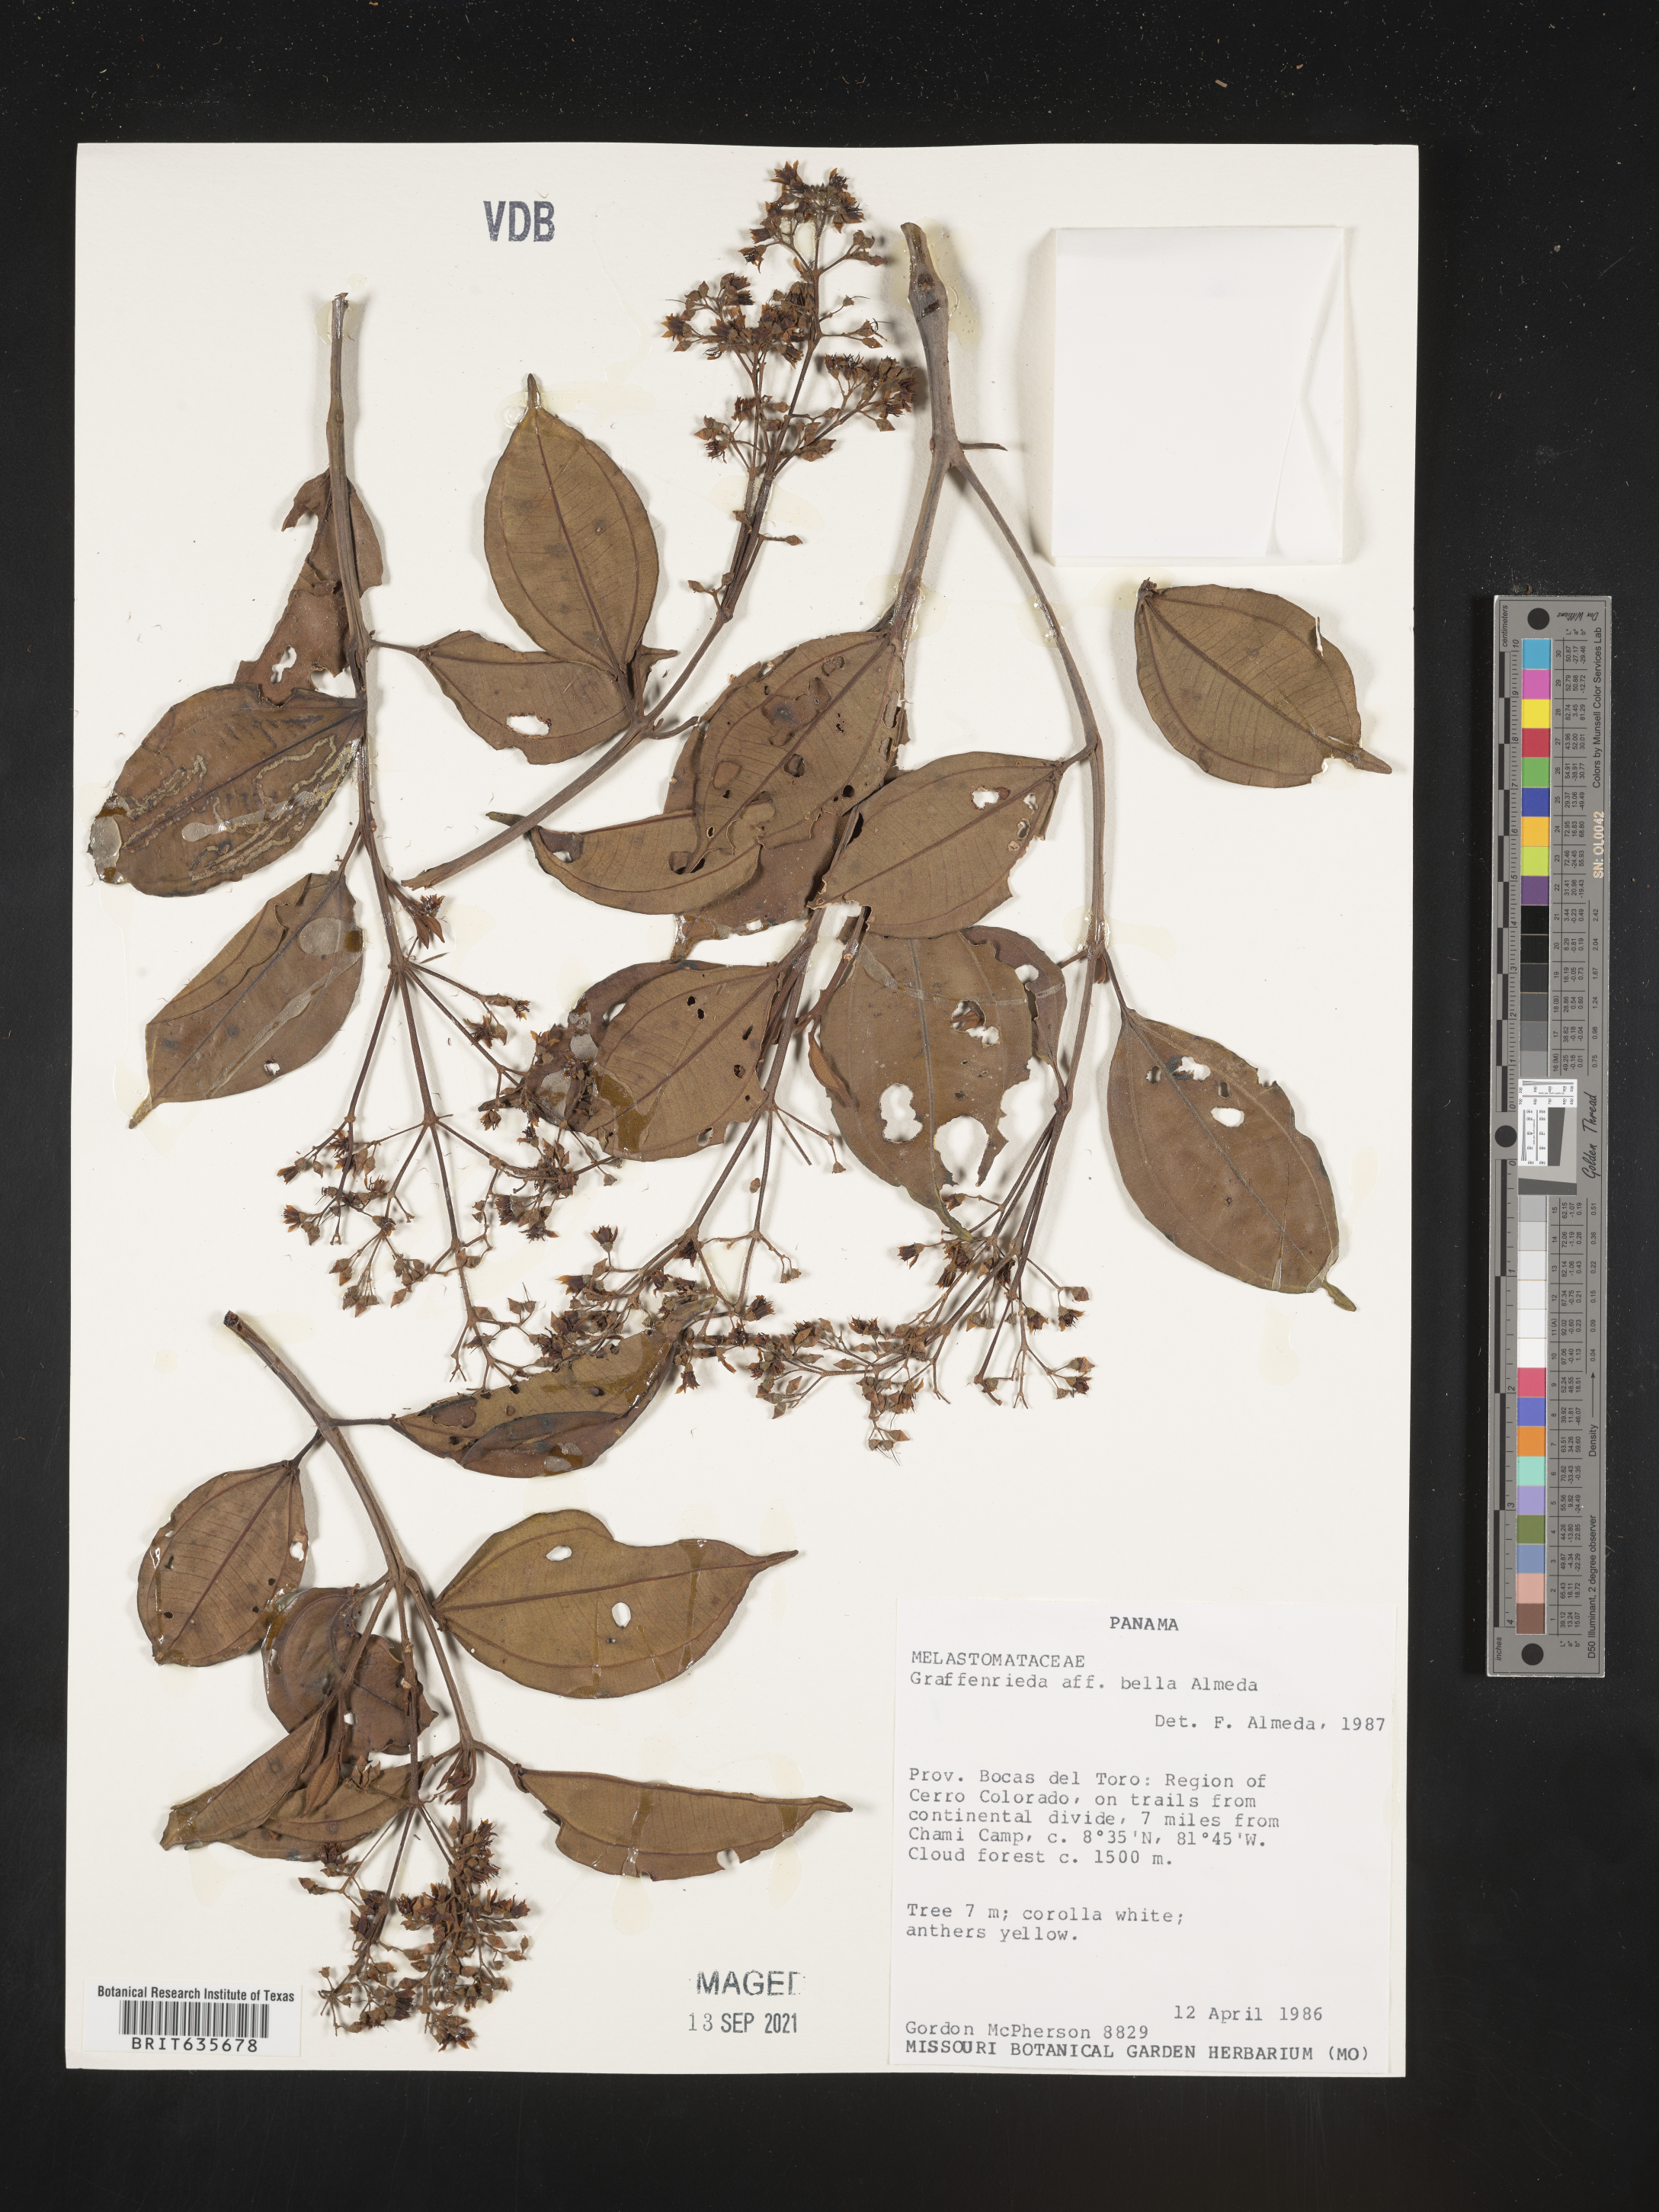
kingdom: Plantae
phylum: Tracheophyta
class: Magnoliopsida
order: Myrtales
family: Melastomataceae
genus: Graffenrieda
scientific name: Graffenrieda
